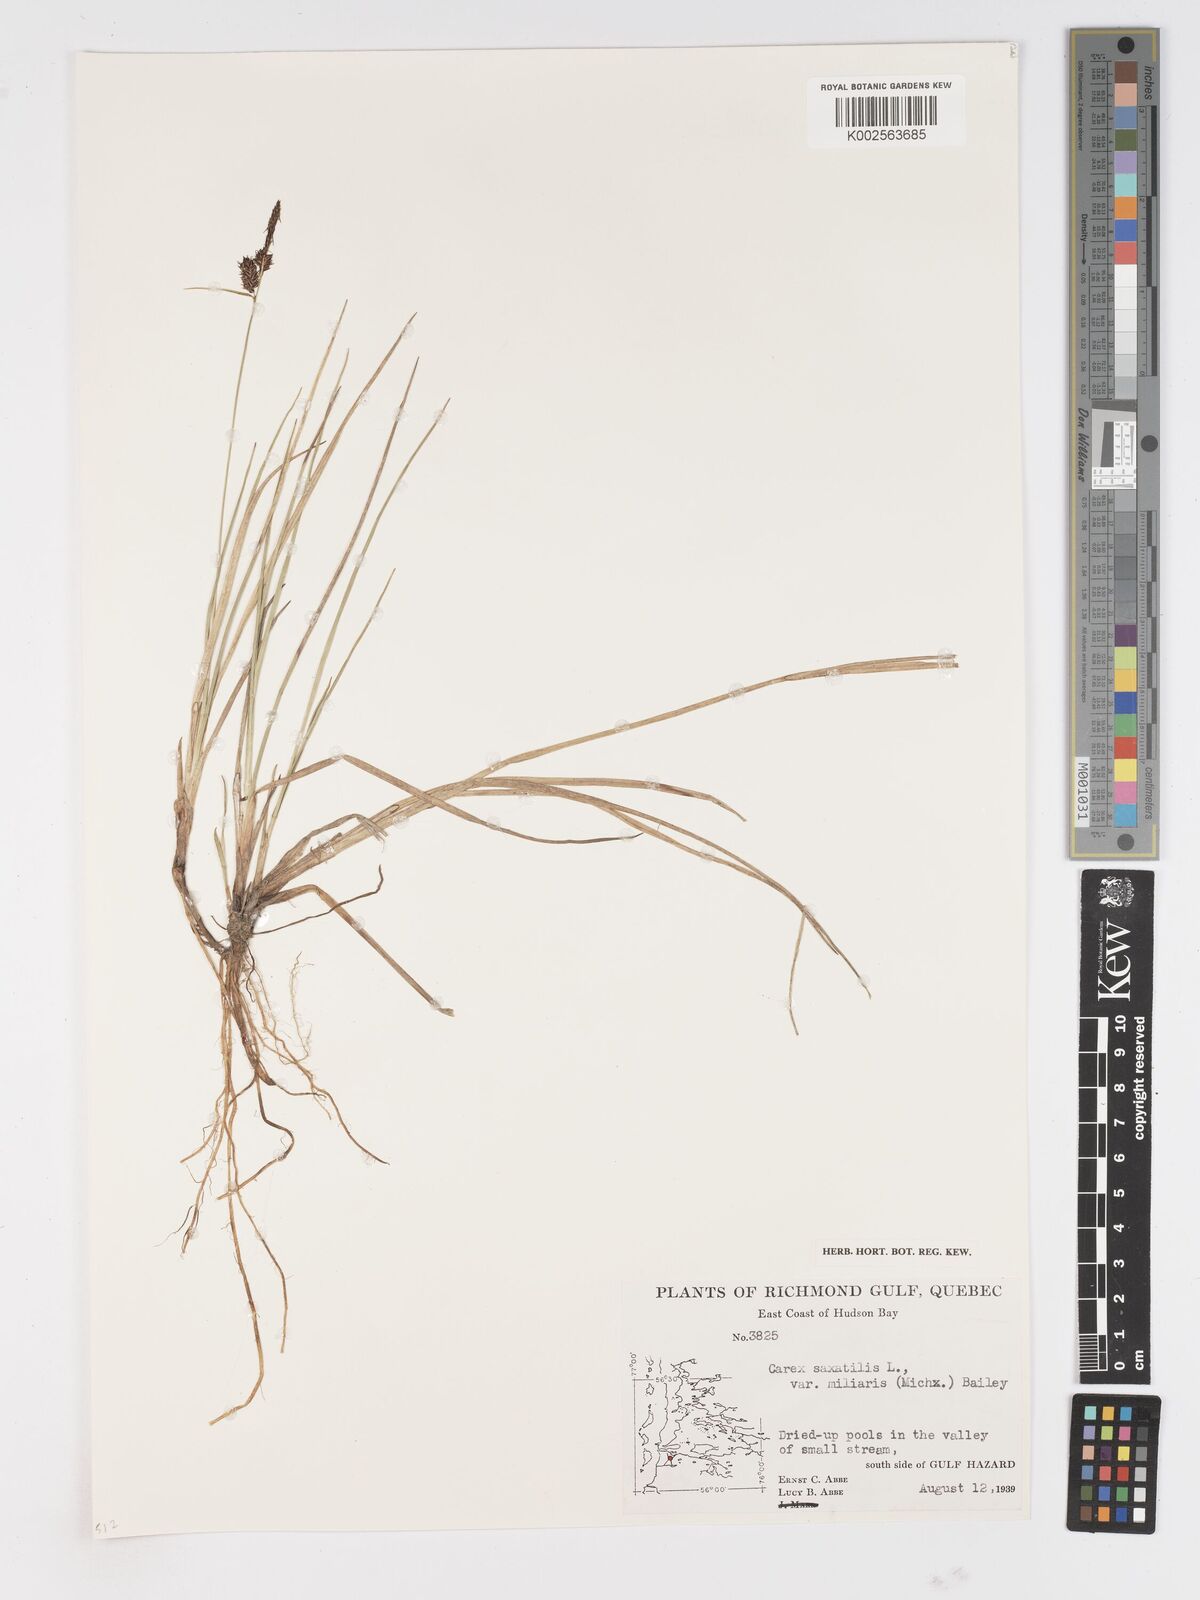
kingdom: Plantae
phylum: Tracheophyta
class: Liliopsida
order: Poales
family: Cyperaceae
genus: Carex
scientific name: Carex miliaris
